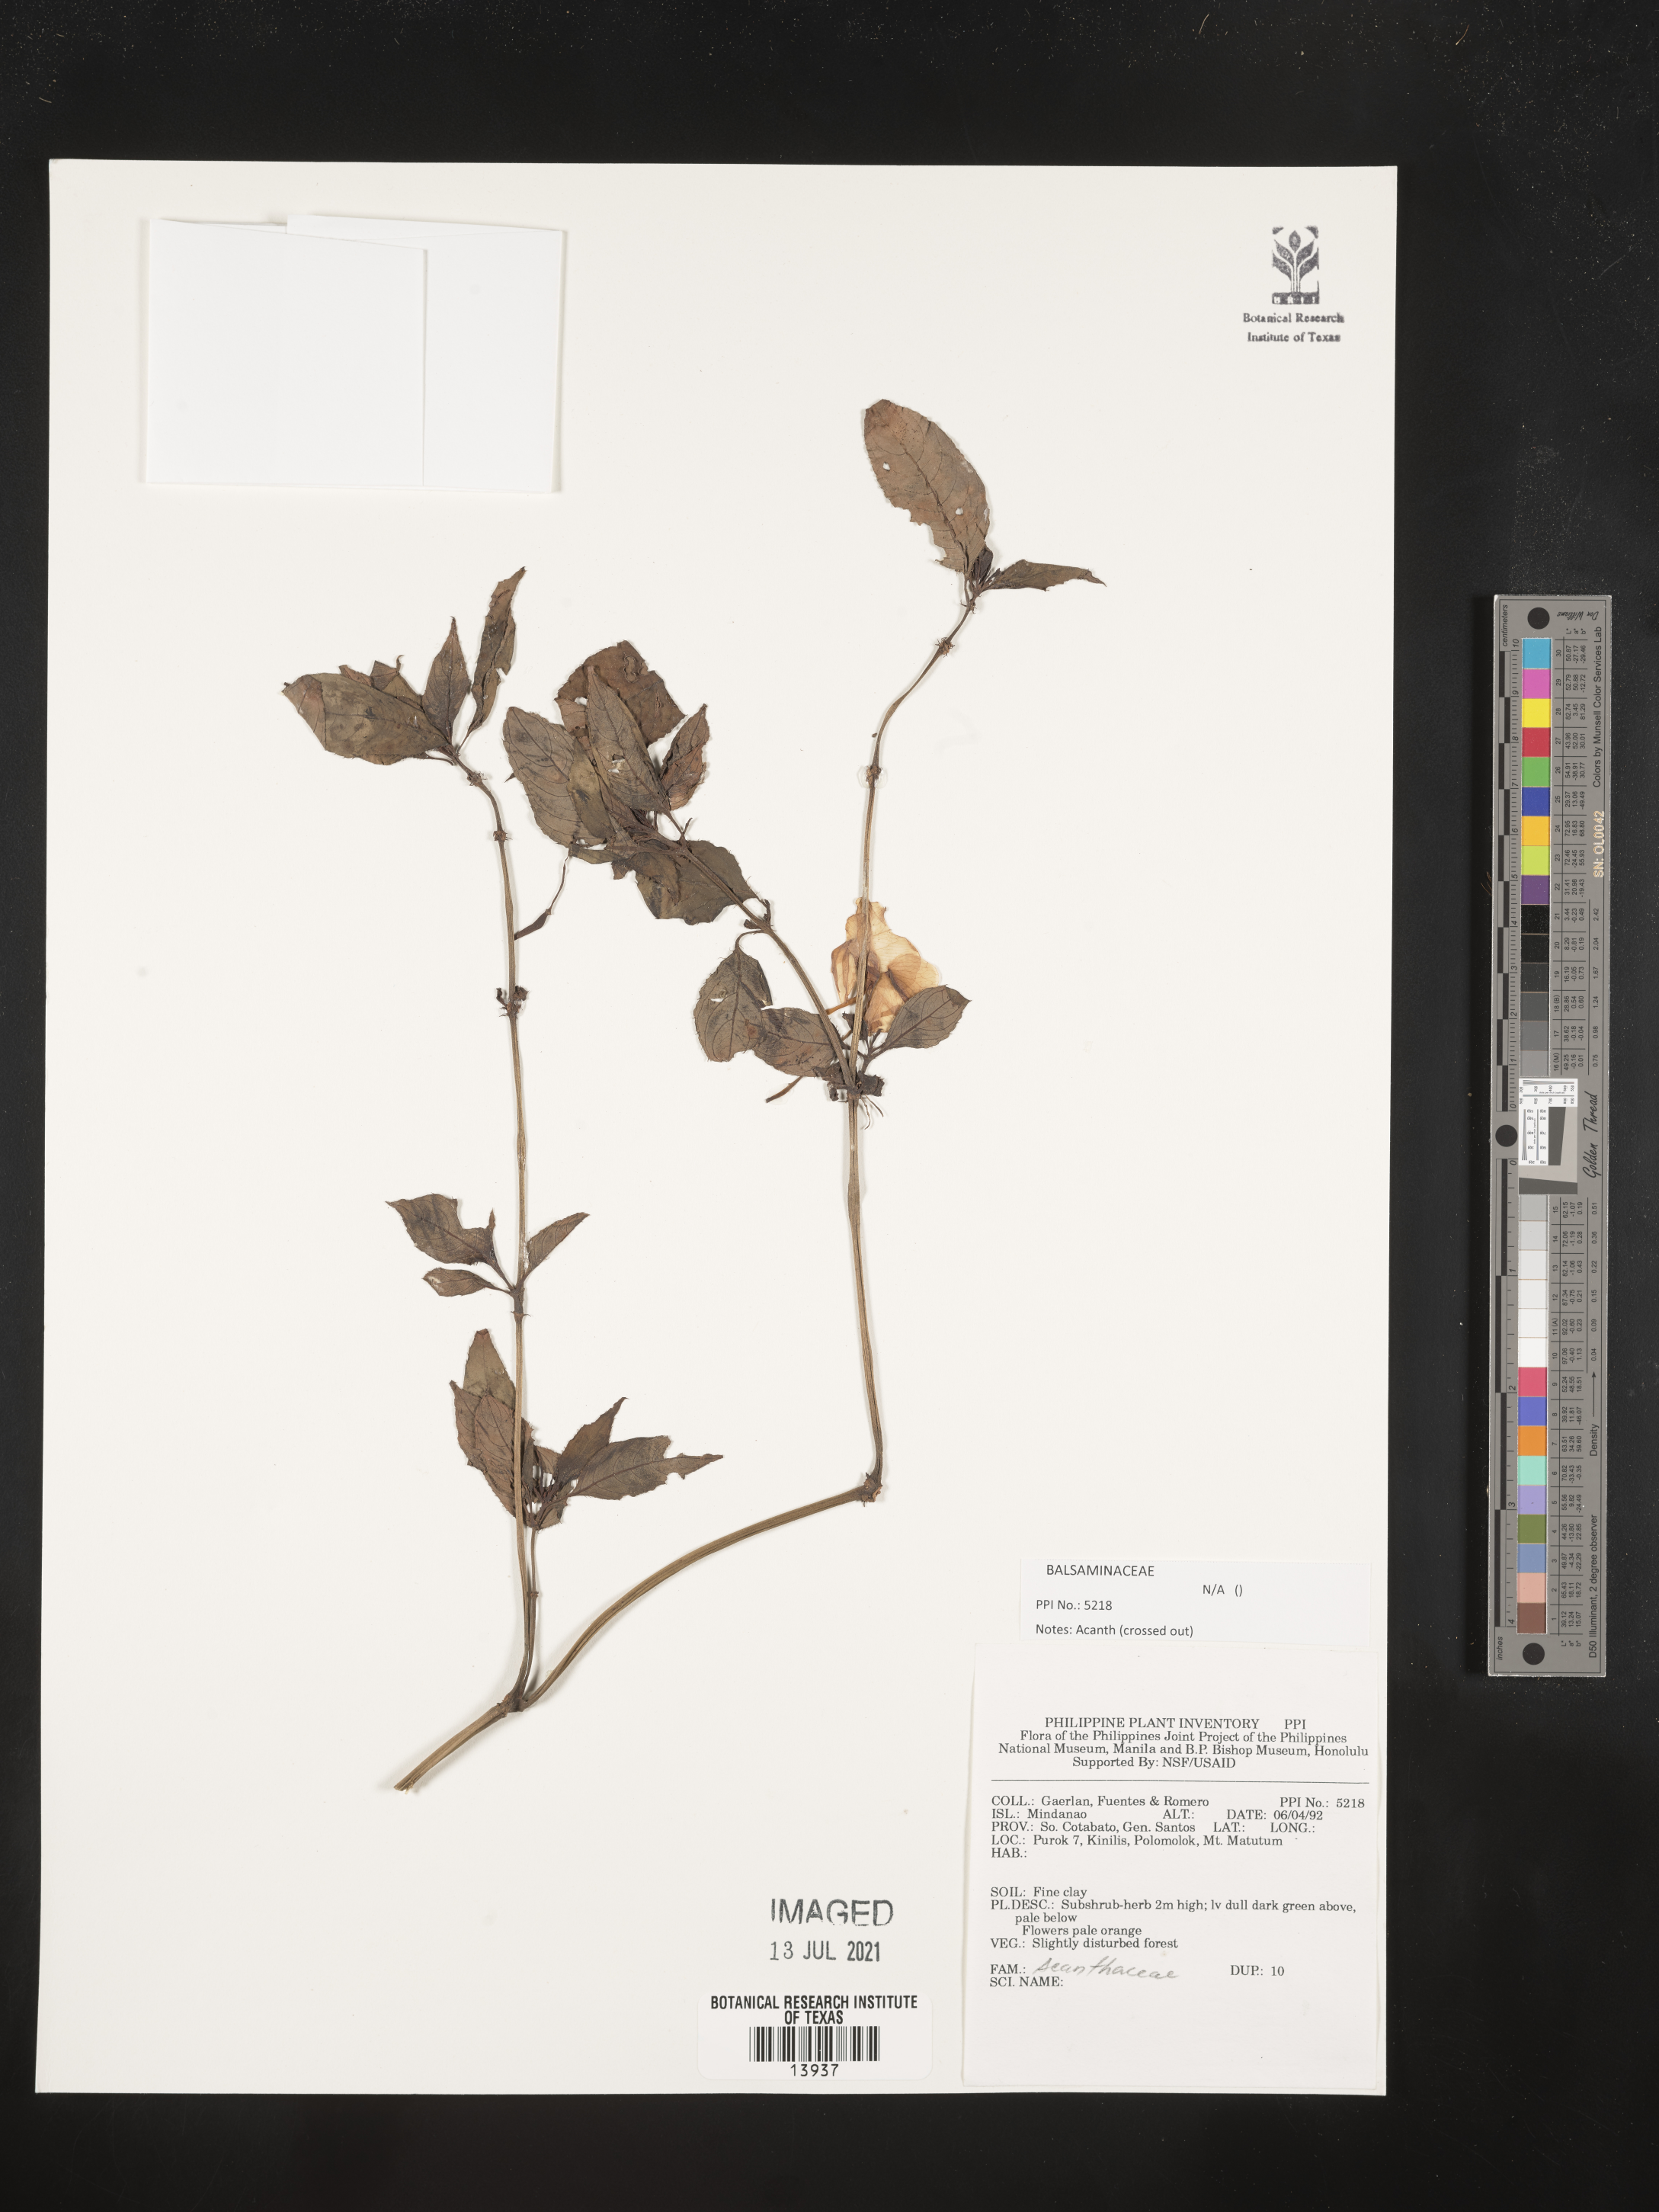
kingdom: Plantae
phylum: Tracheophyta
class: Magnoliopsida
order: Ericales
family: Balsaminaceae
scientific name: Balsaminaceae
